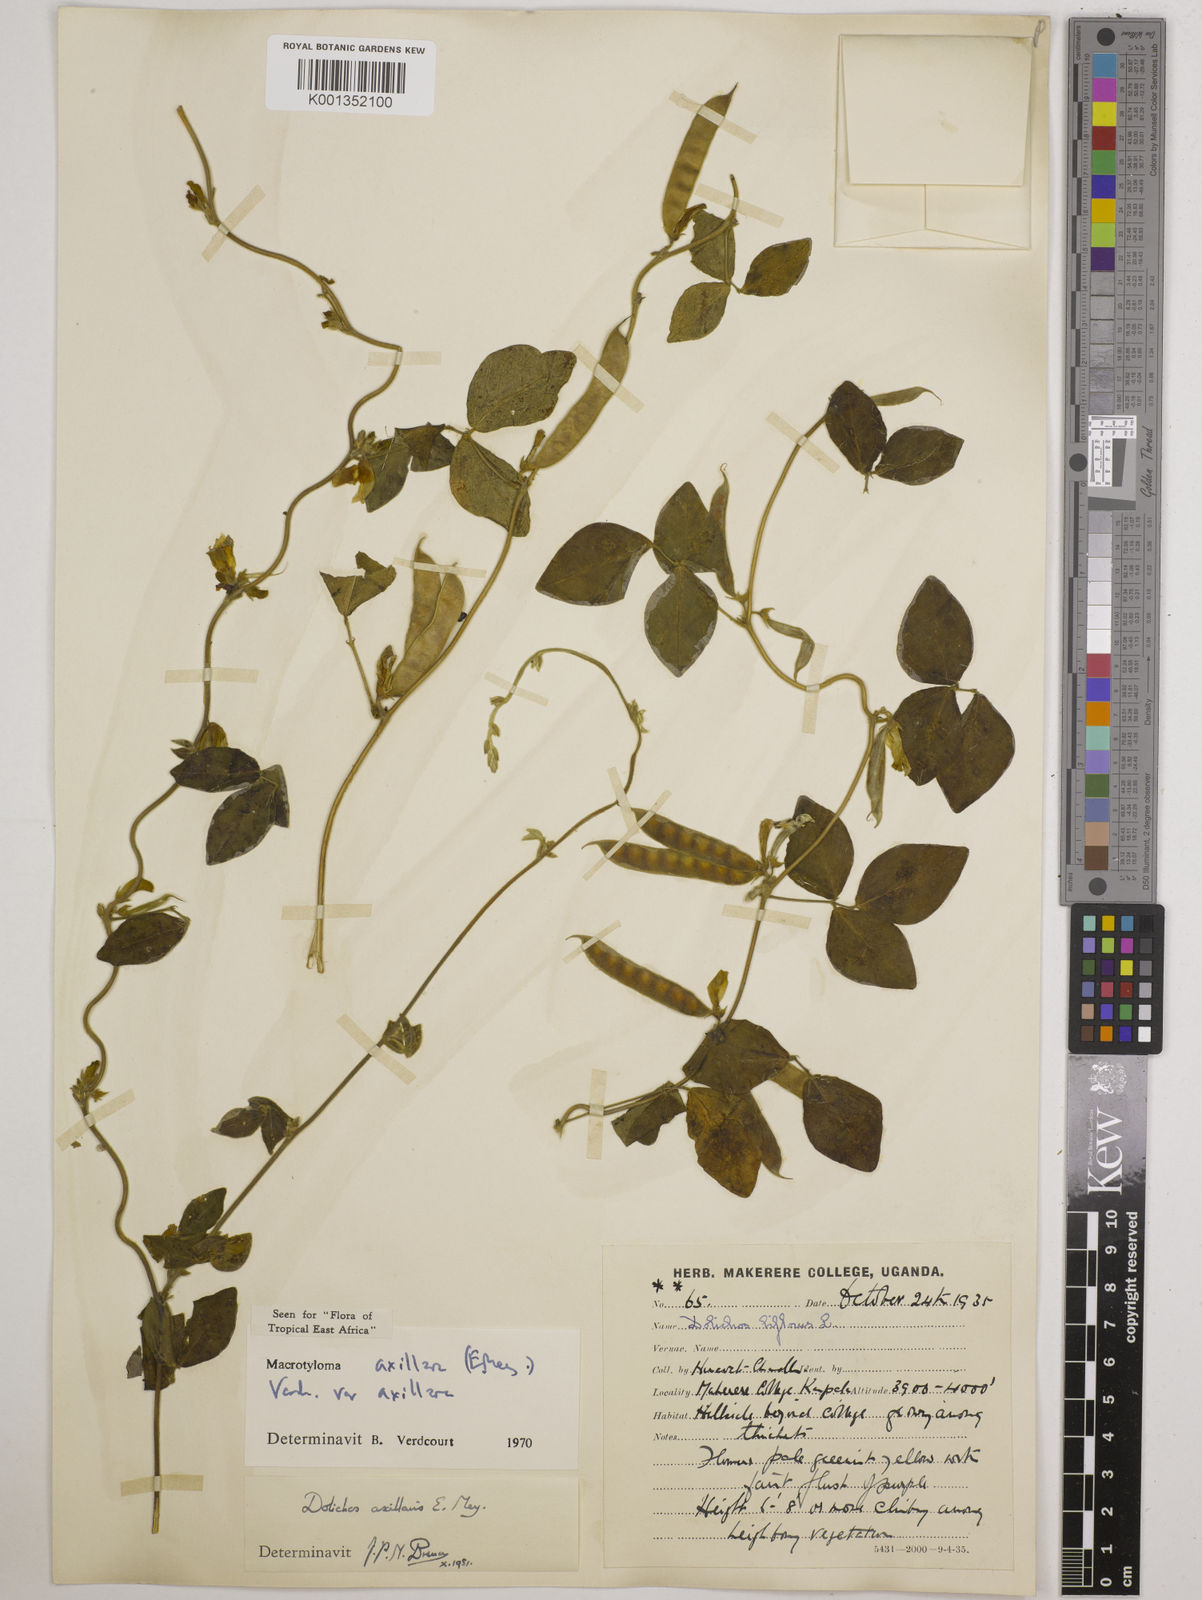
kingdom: Plantae
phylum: Tracheophyta
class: Magnoliopsida
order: Fabales
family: Fabaceae
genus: Macrotyloma
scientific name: Macrotyloma axillare
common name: Perennial horsegram
